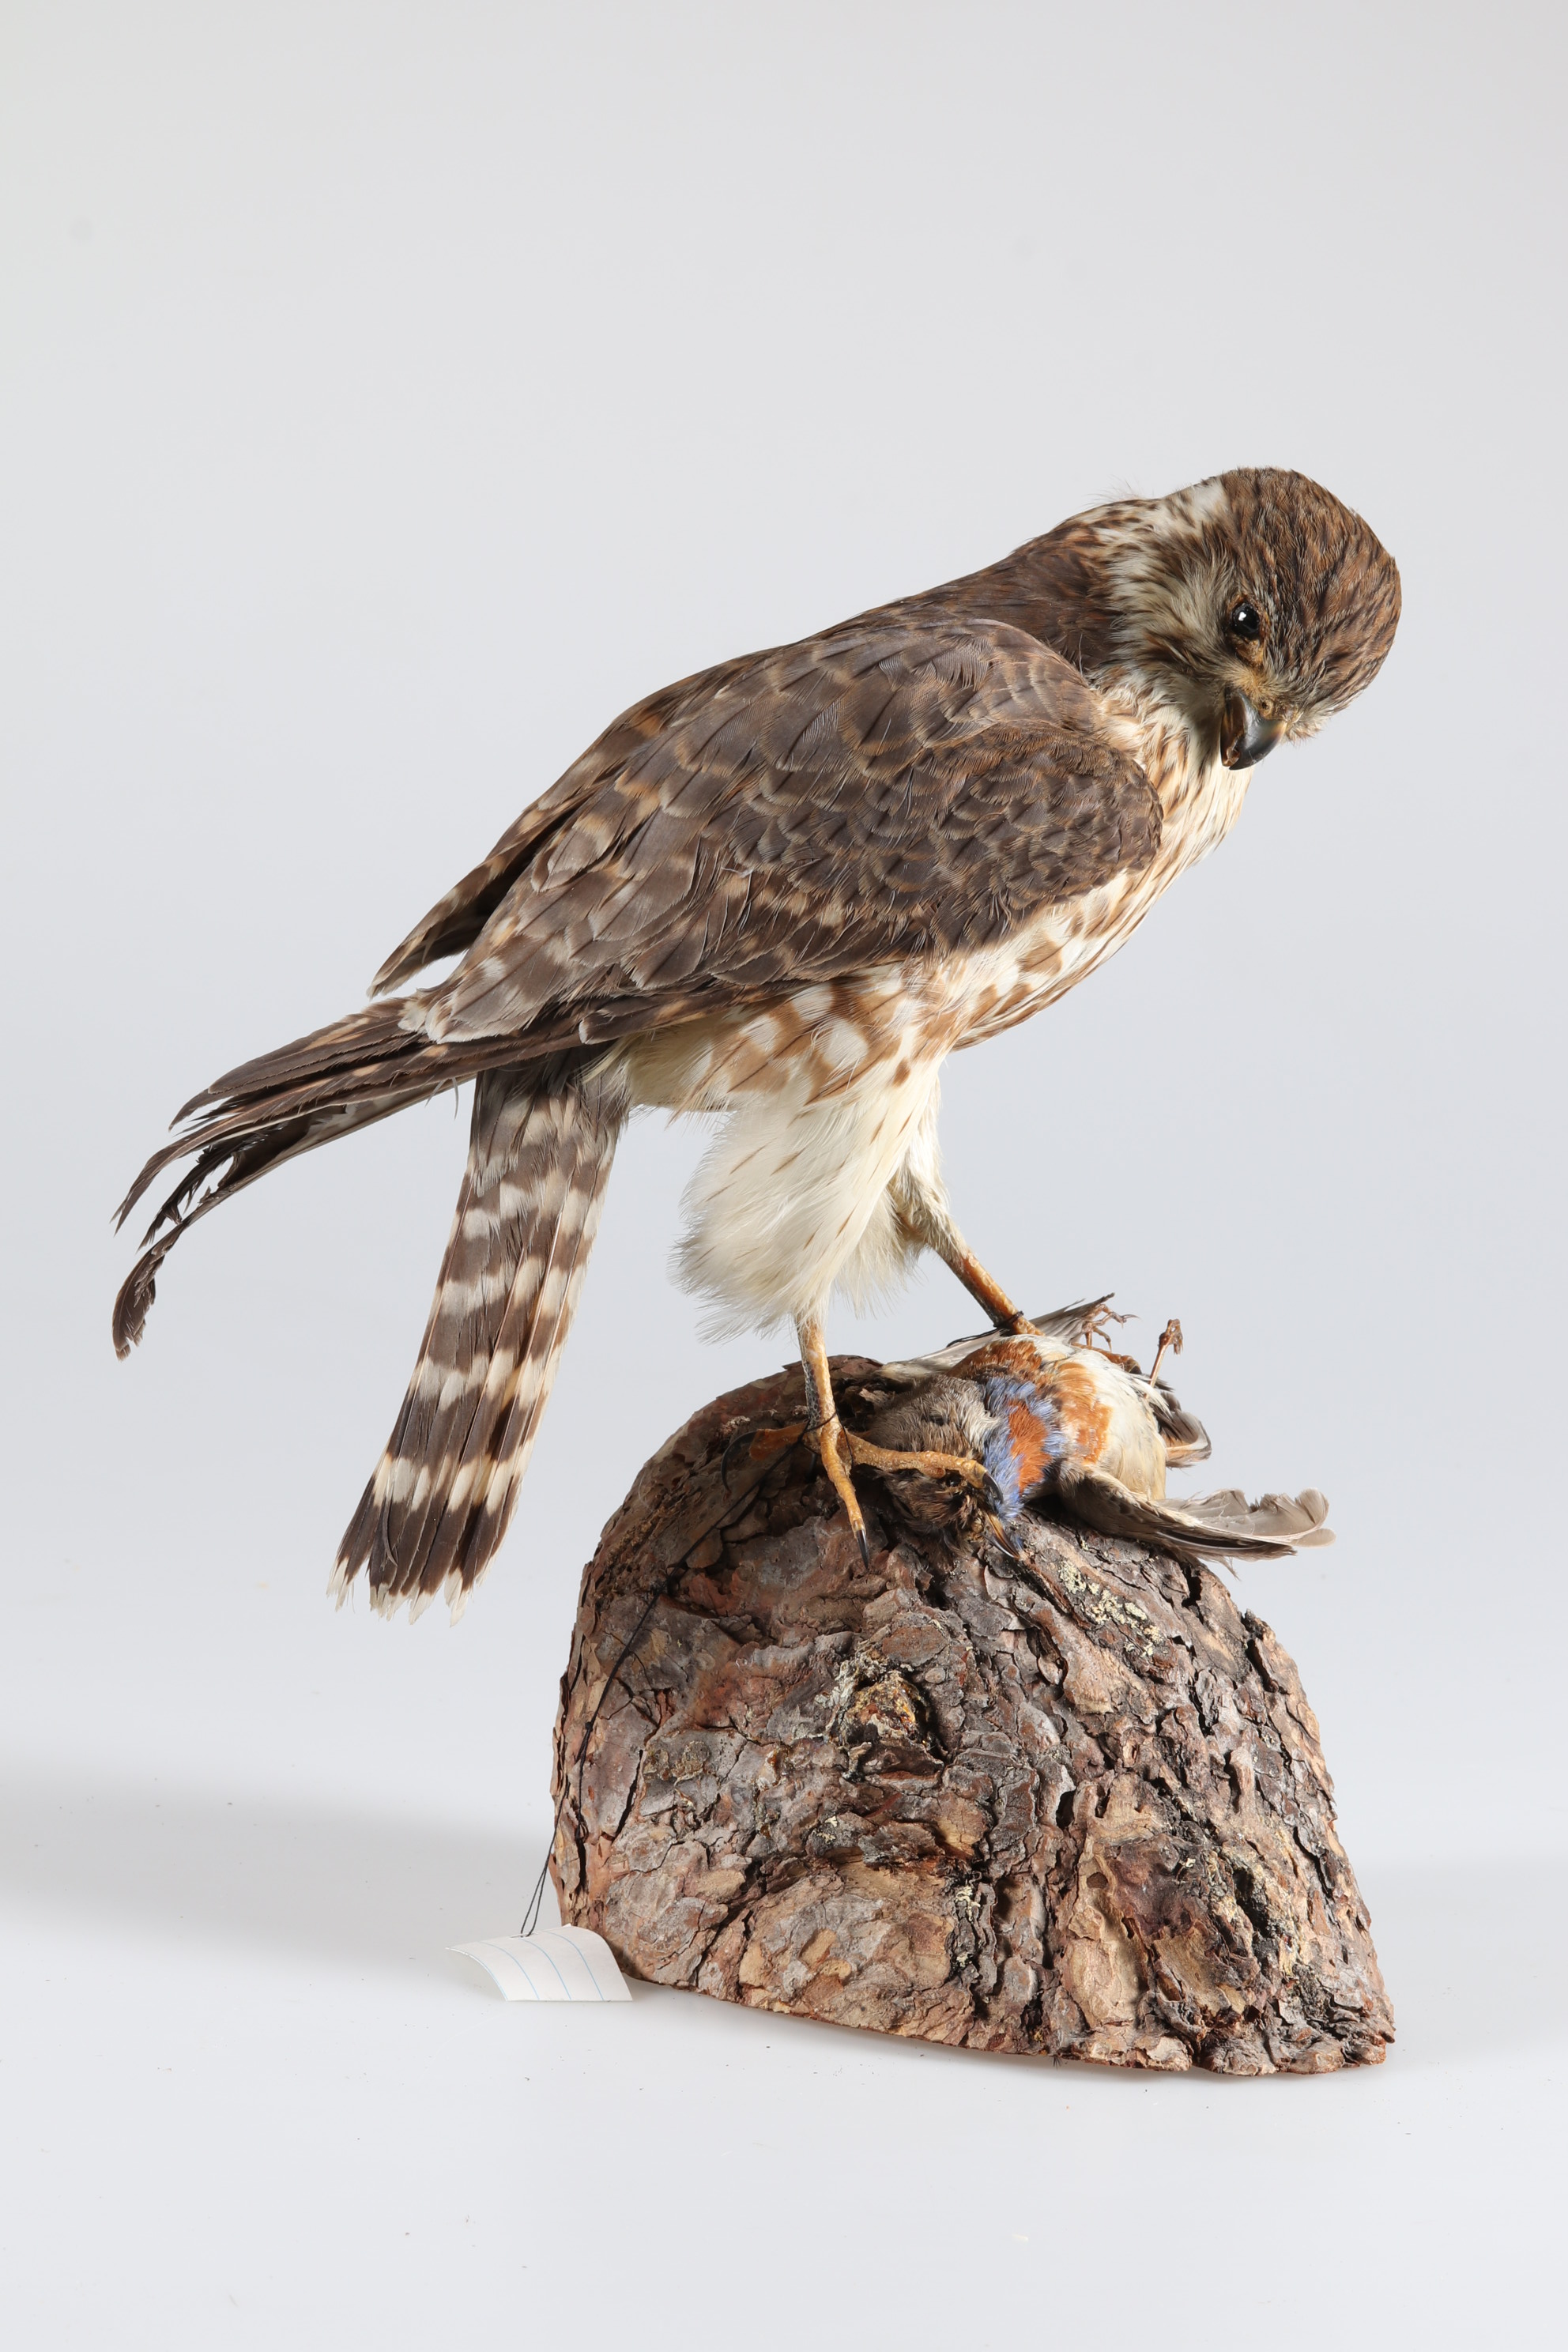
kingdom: Animalia
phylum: Chordata
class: Aves
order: Falconiformes
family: Falconidae
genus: Falco
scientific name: Falco columbarius
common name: Merlin
